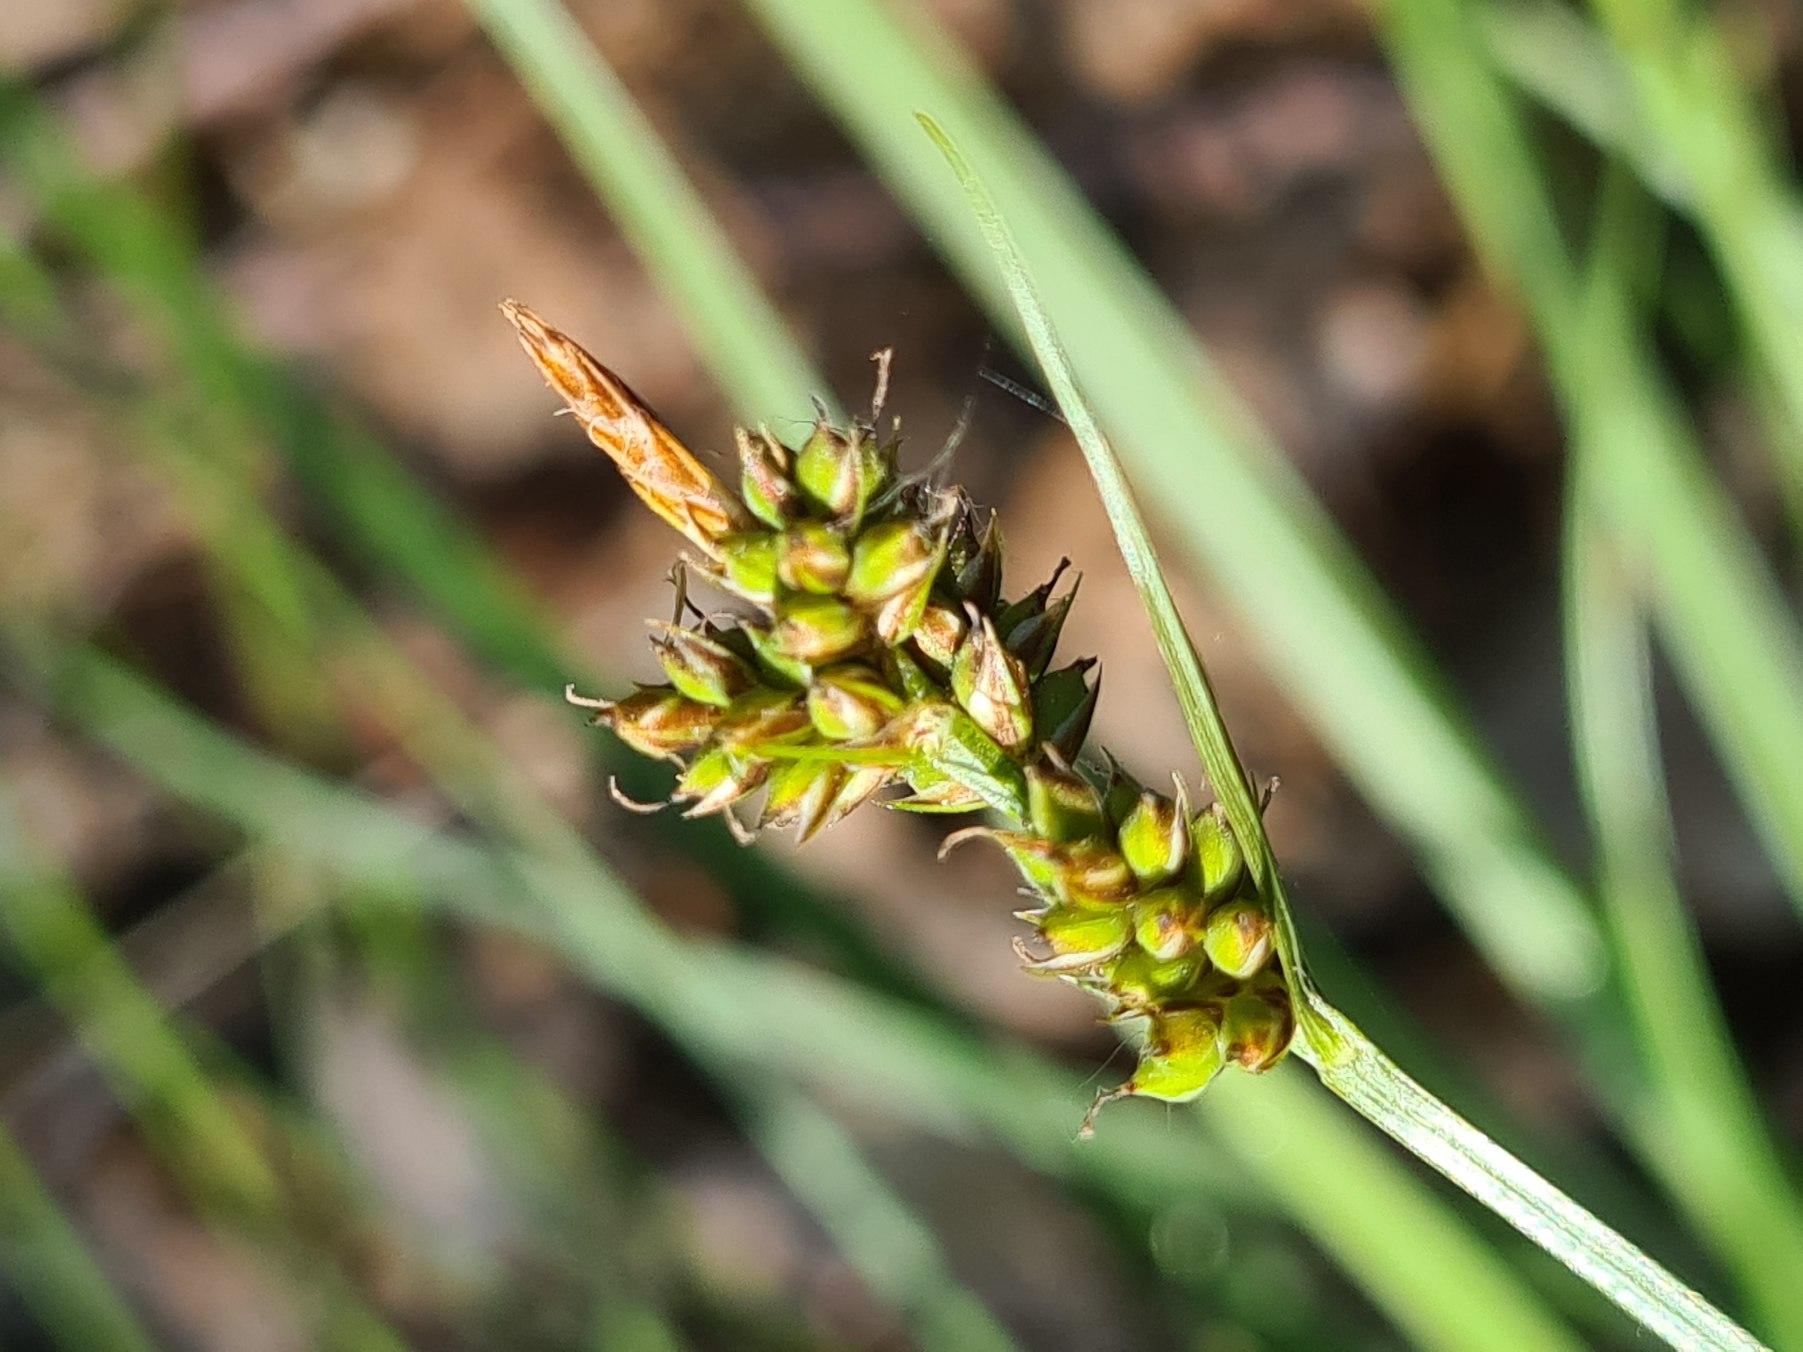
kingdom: Plantae
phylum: Tracheophyta
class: Liliopsida
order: Poales
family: Cyperaceae
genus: Carex
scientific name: Carex pilulifera
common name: Pille-star
